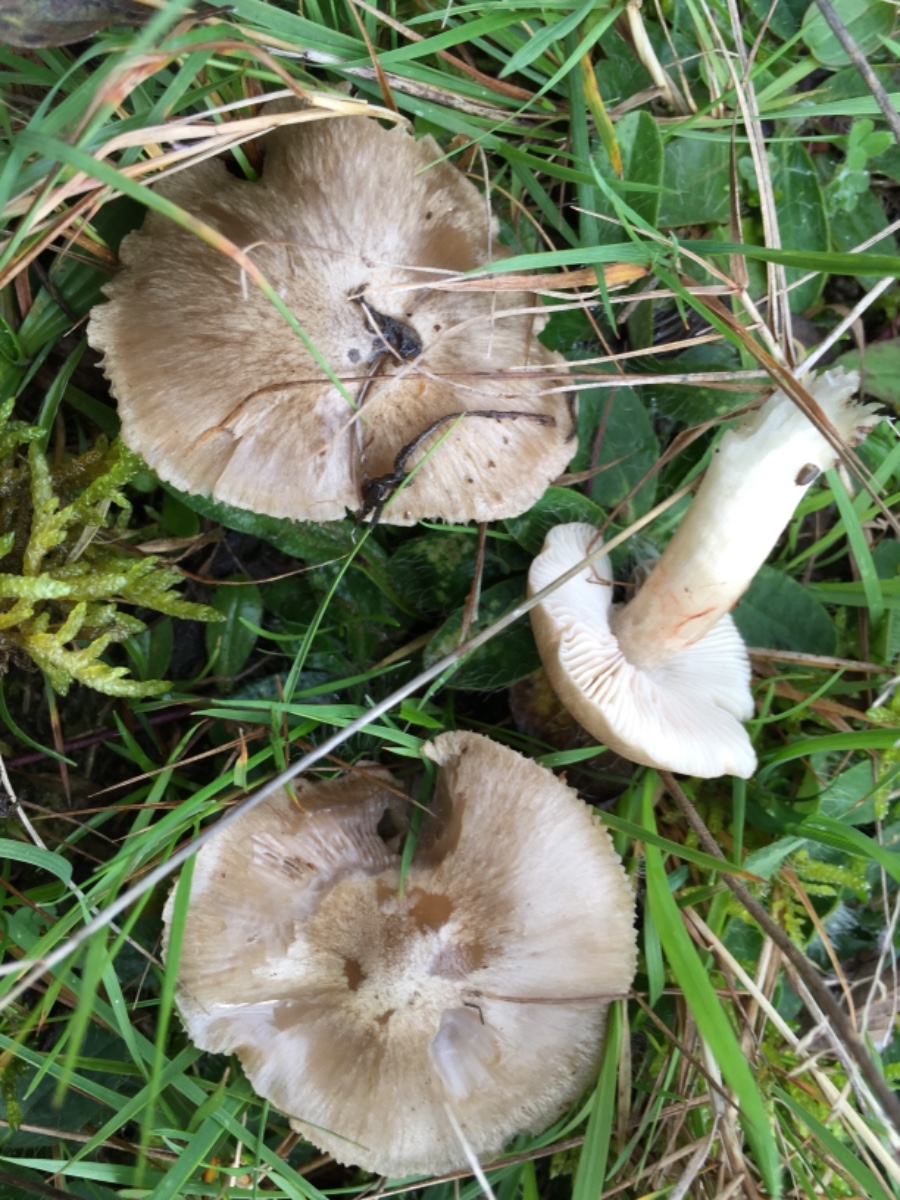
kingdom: Fungi
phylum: Basidiomycota
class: Agaricomycetes
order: Agaricales
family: Entolomataceae
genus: Entoloma
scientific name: Entoloma prunuloides
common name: mel-rødblad
